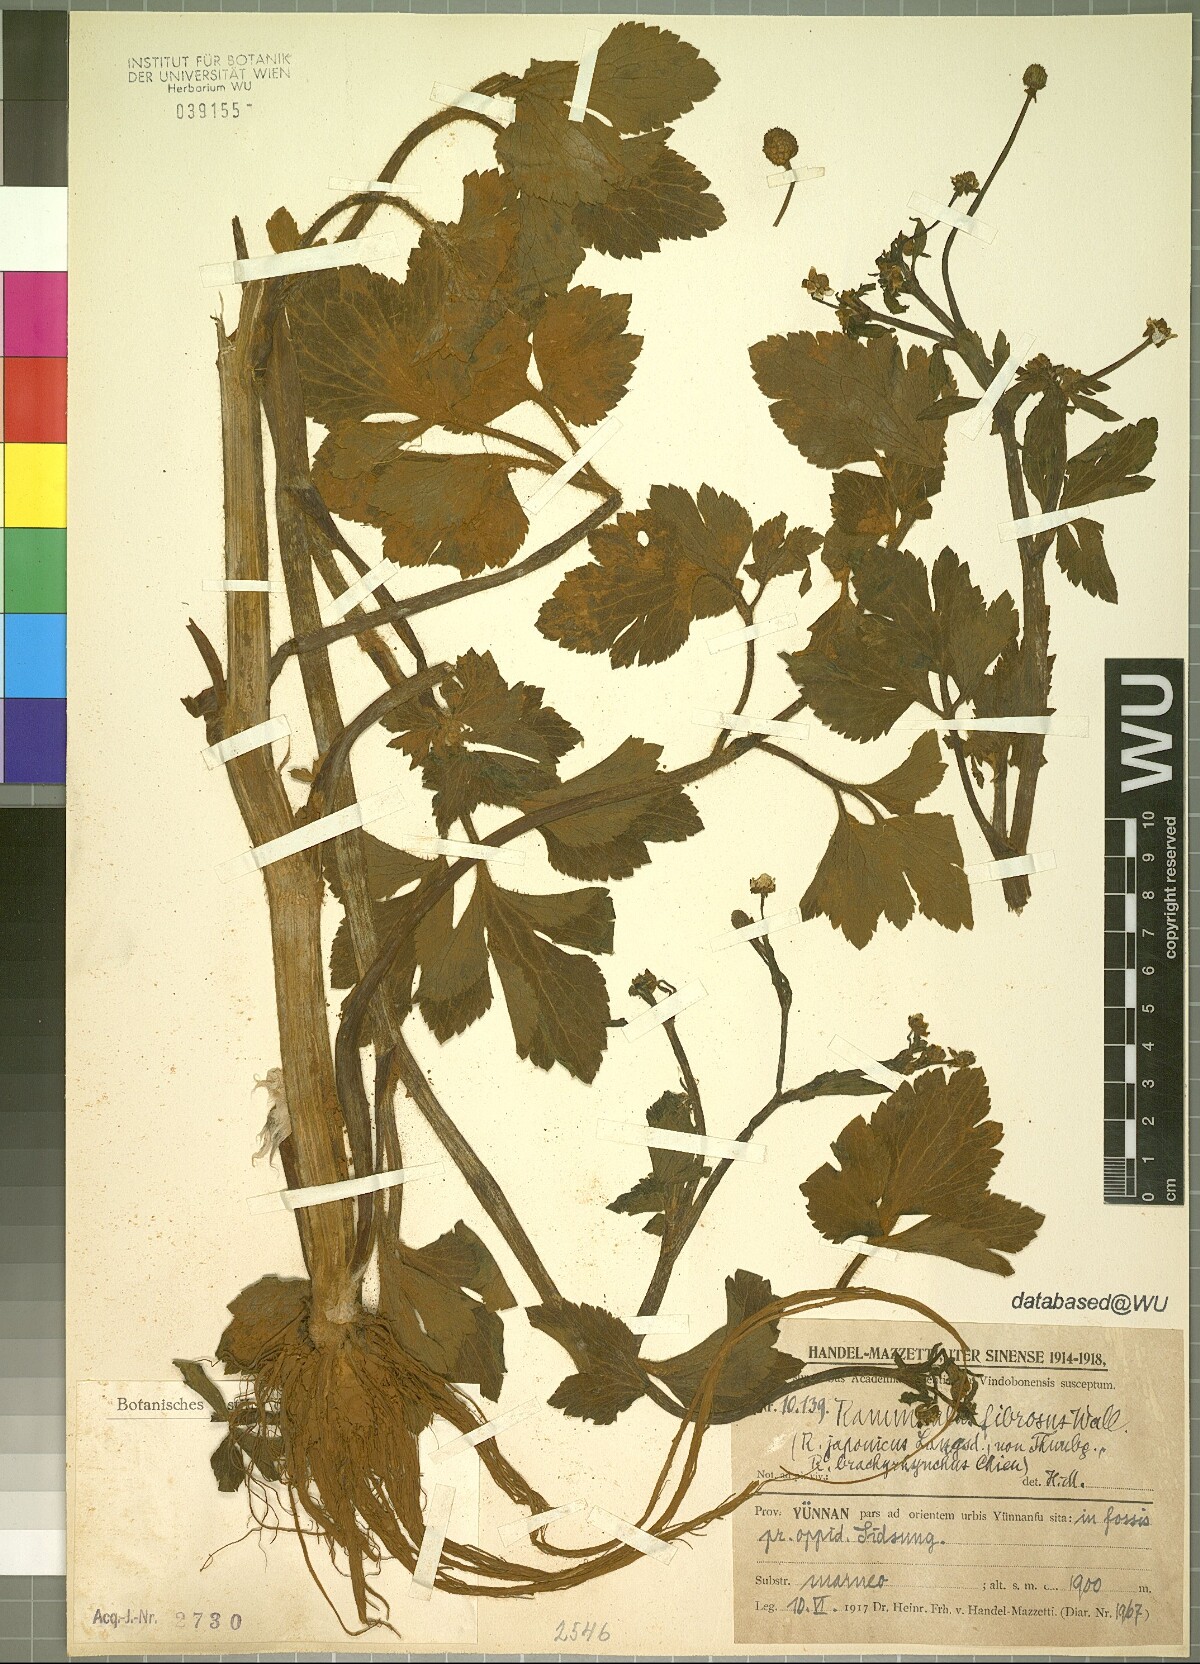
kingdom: Plantae
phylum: Tracheophyta
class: Magnoliopsida
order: Ranunculales
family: Ranunculaceae
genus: Ranunculus
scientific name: Ranunculus cantoniensis
